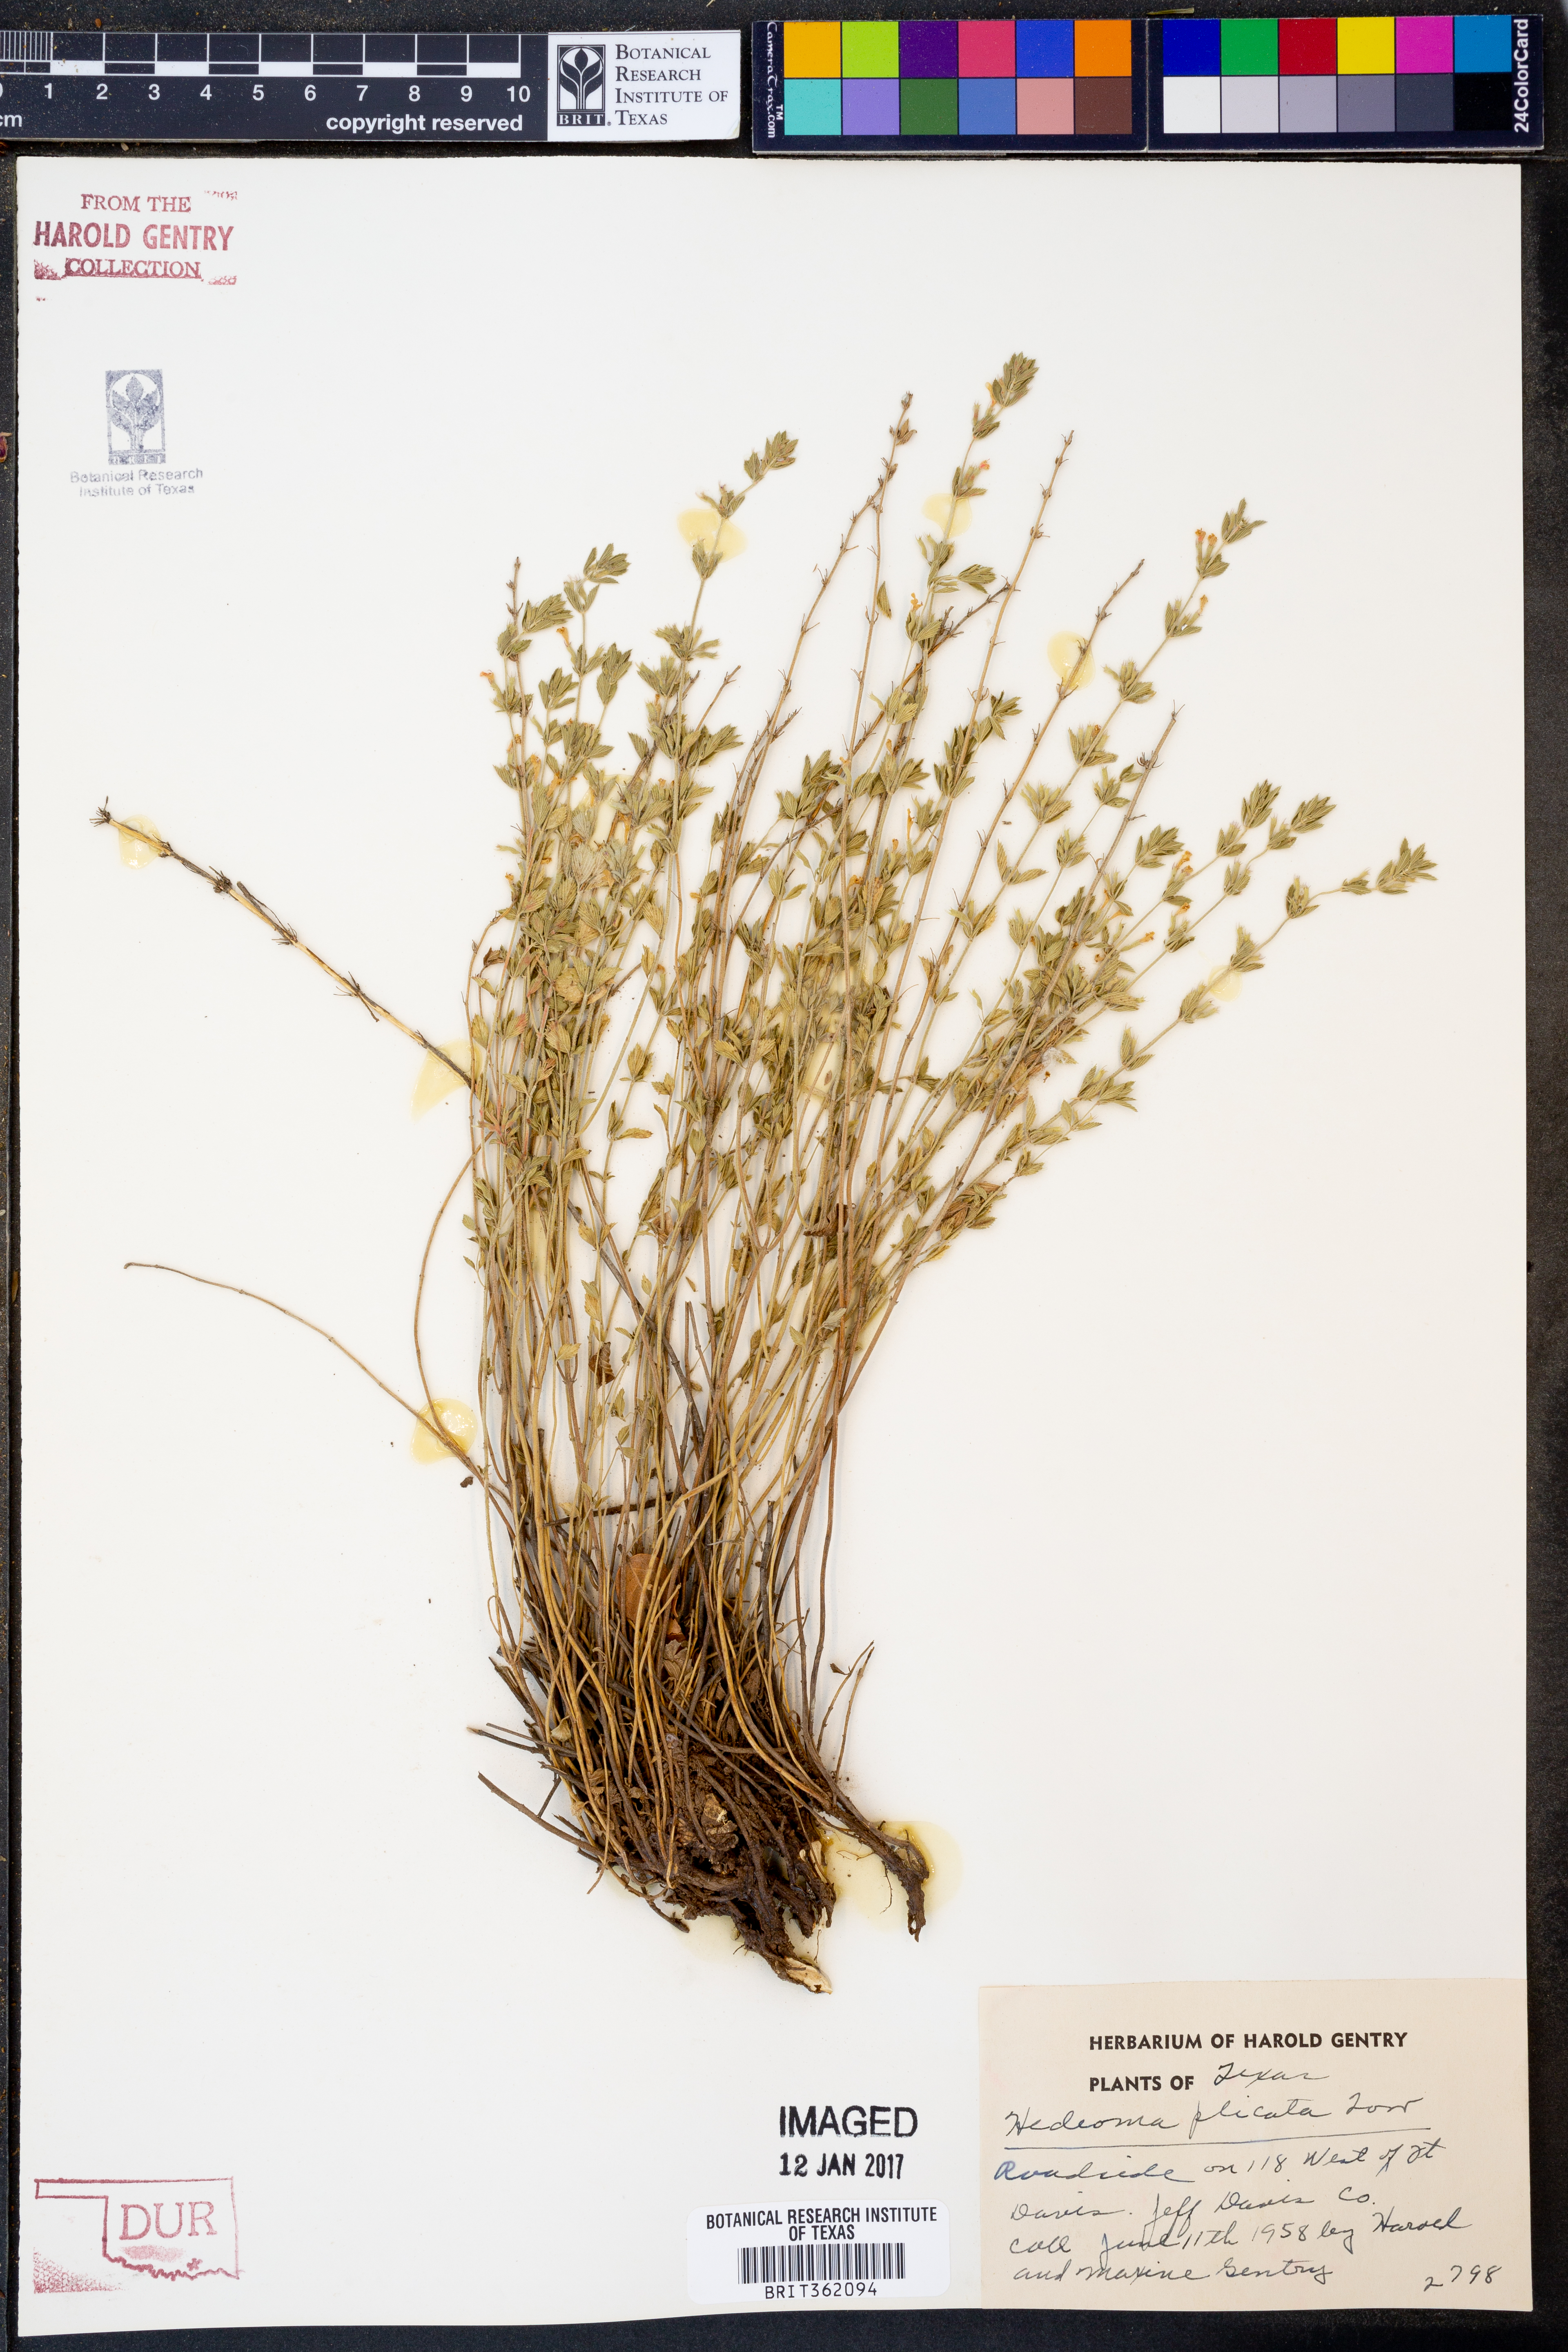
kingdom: Plantae
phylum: Tracheophyta
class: Magnoliopsida
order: Lamiales
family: Lamiaceae
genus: Hedeoma
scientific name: Hedeoma plicata
